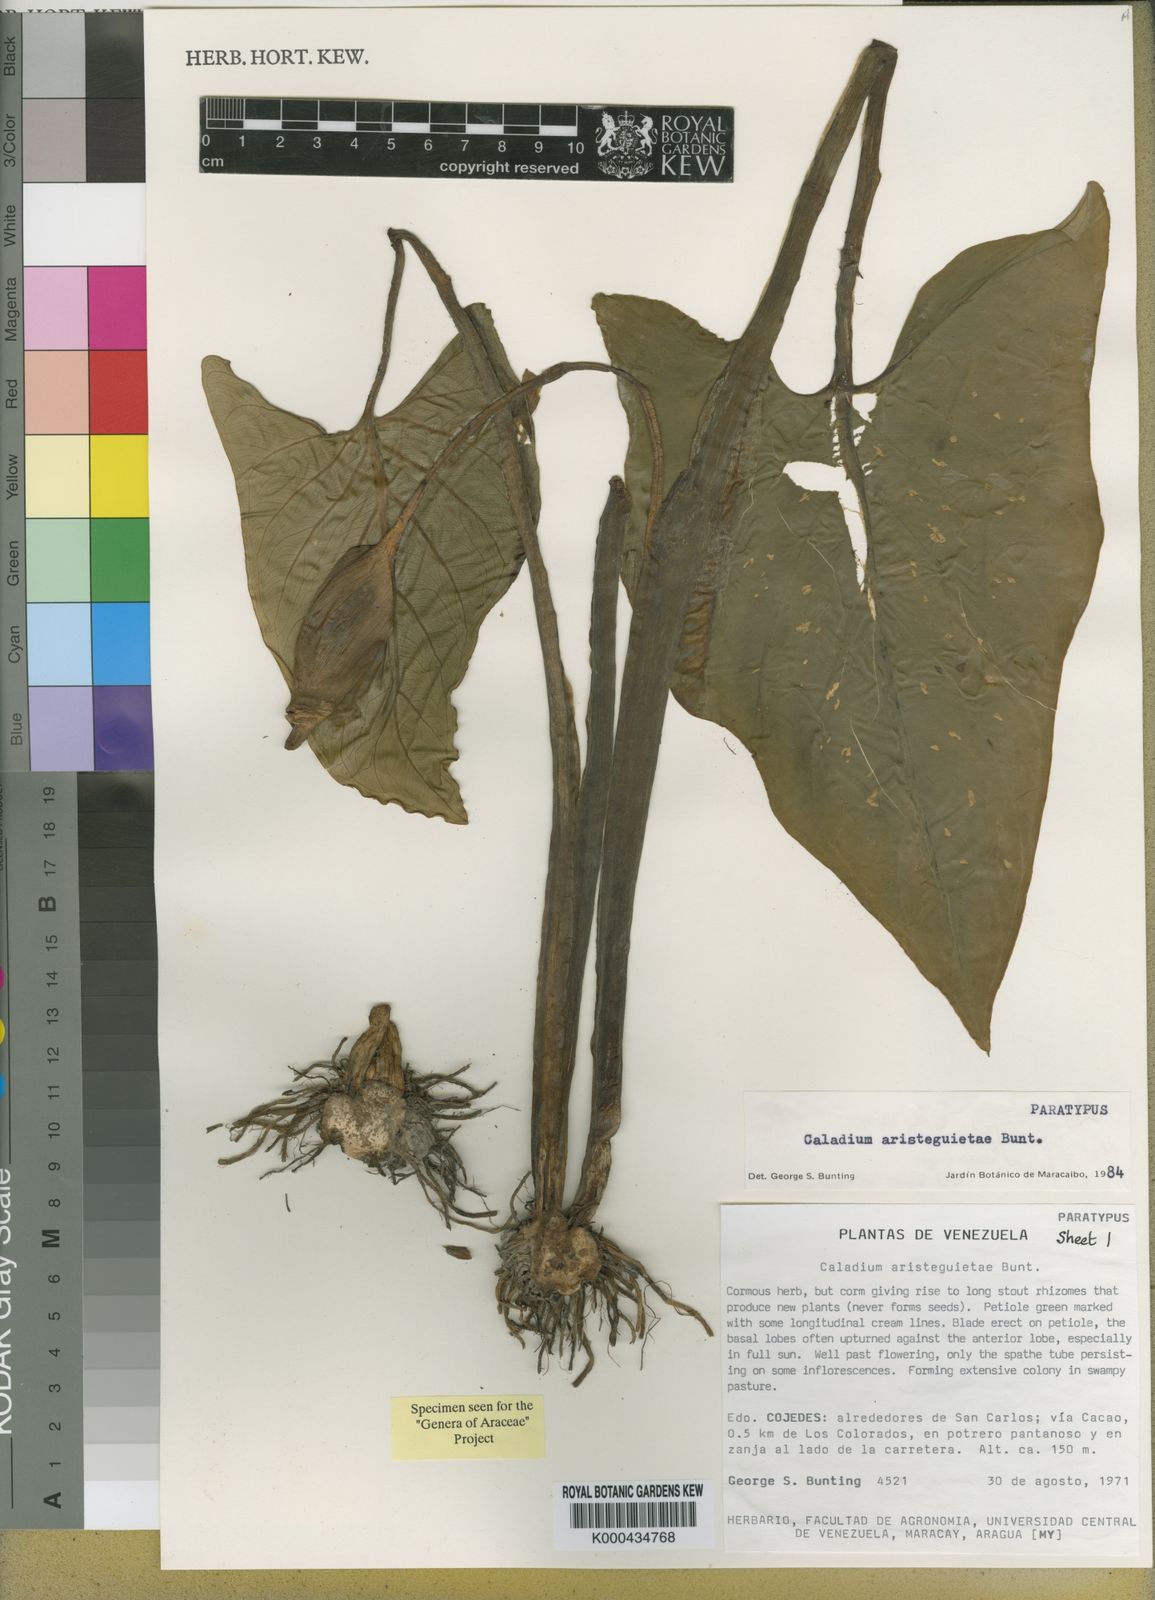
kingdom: Plantae
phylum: Tracheophyta
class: Liliopsida
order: Alismatales
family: Araceae
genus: Xanthosoma
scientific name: Xanthosoma aristeguietae
